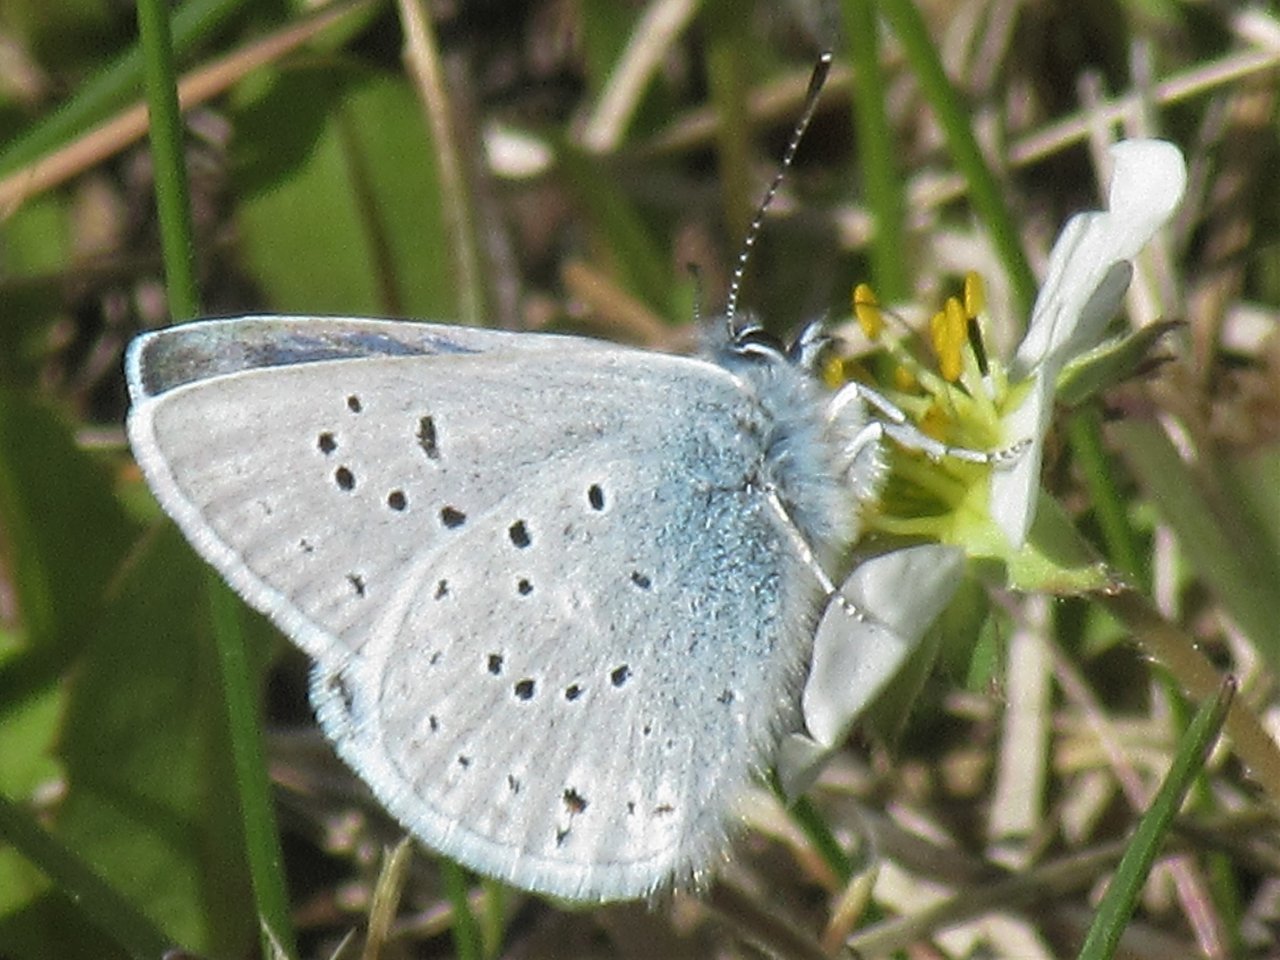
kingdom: Animalia
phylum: Arthropoda
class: Insecta
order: Lepidoptera
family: Lycaenidae
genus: Plebejus
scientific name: Plebejus saepiolus
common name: Greenish Blue
